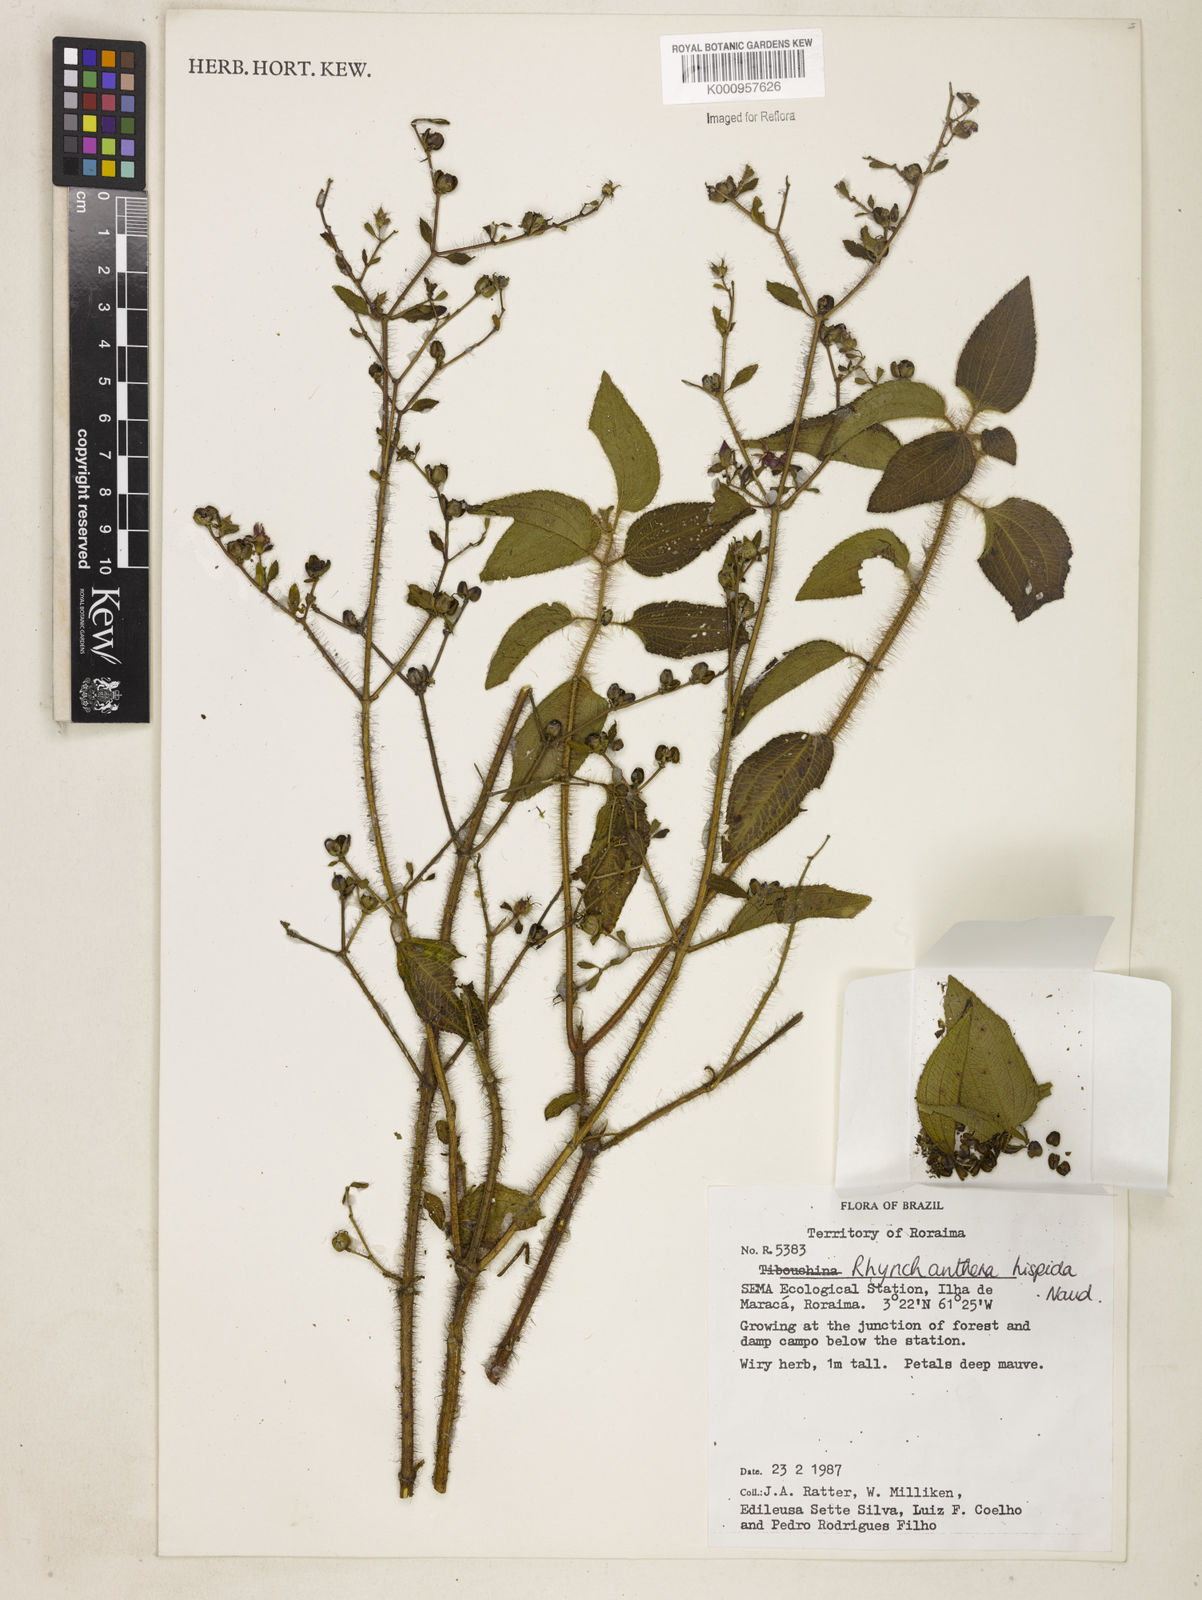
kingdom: Plantae
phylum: Tracheophyta
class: Magnoliopsida
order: Myrtales
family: Melastomataceae
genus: Rhynchanthera
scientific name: Rhynchanthera hispida
